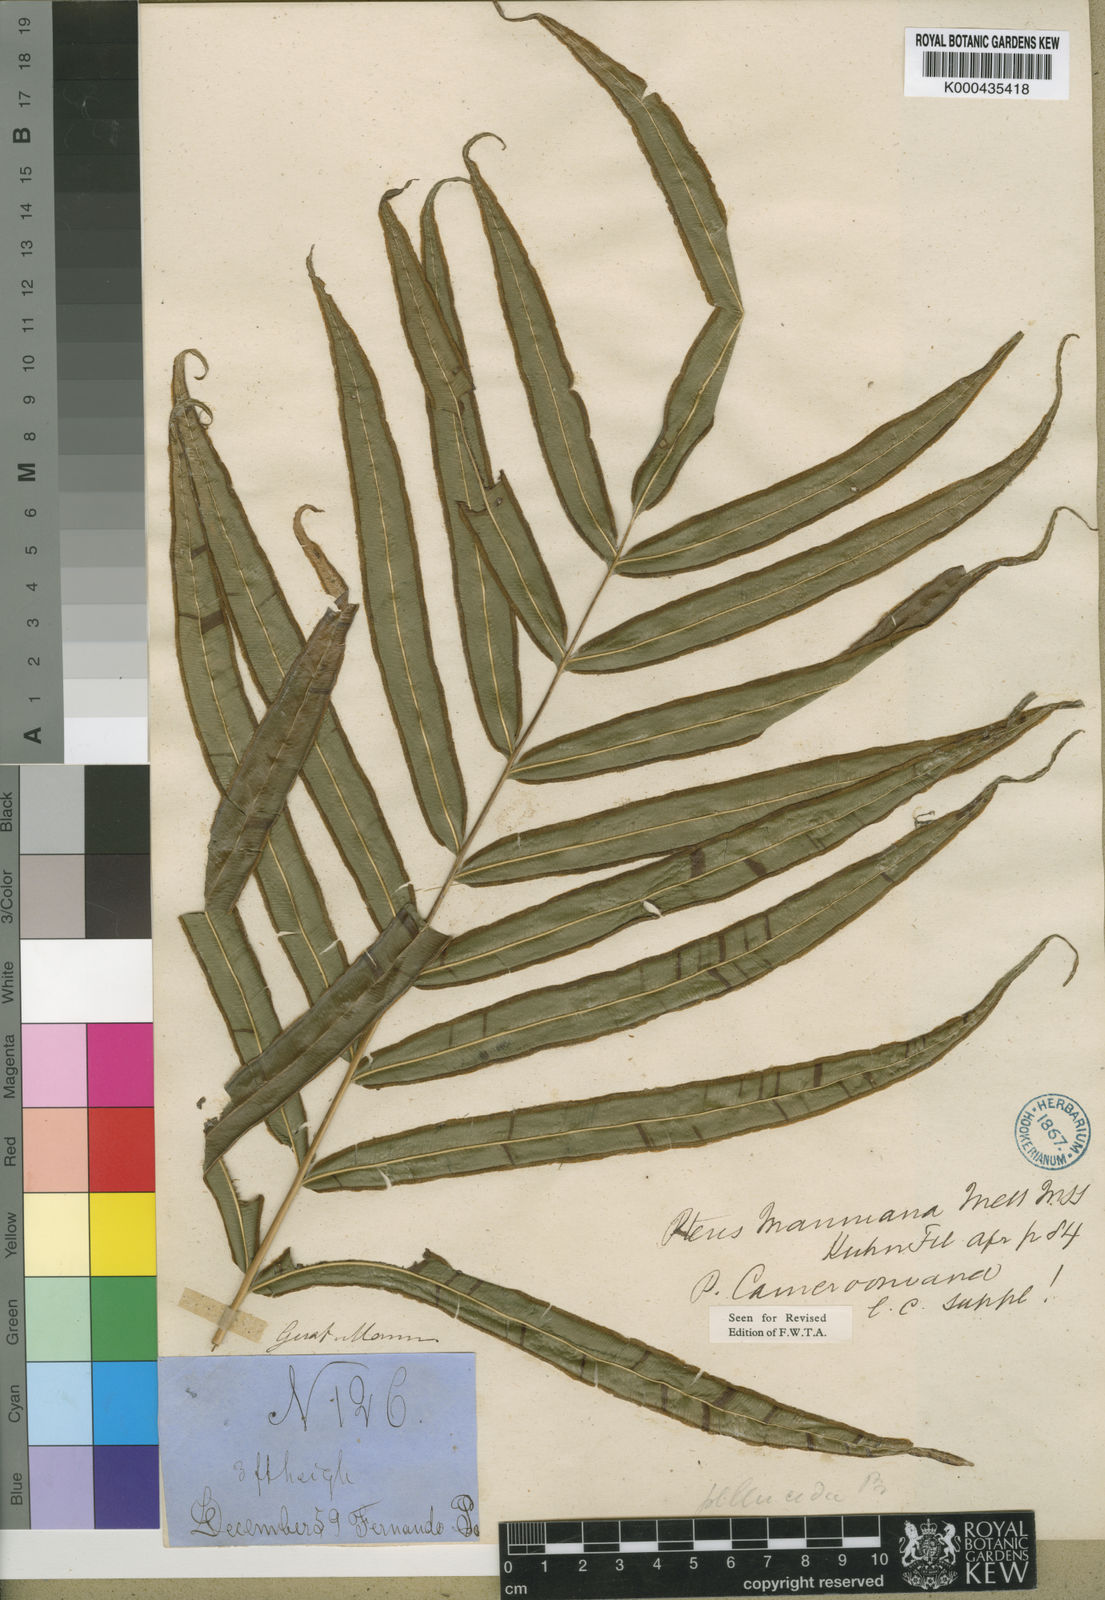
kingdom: Plantae
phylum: Tracheophyta
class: Polypodiopsida
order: Polypodiales
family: Pteridaceae
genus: Pteris
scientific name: Pteris camerooniana
